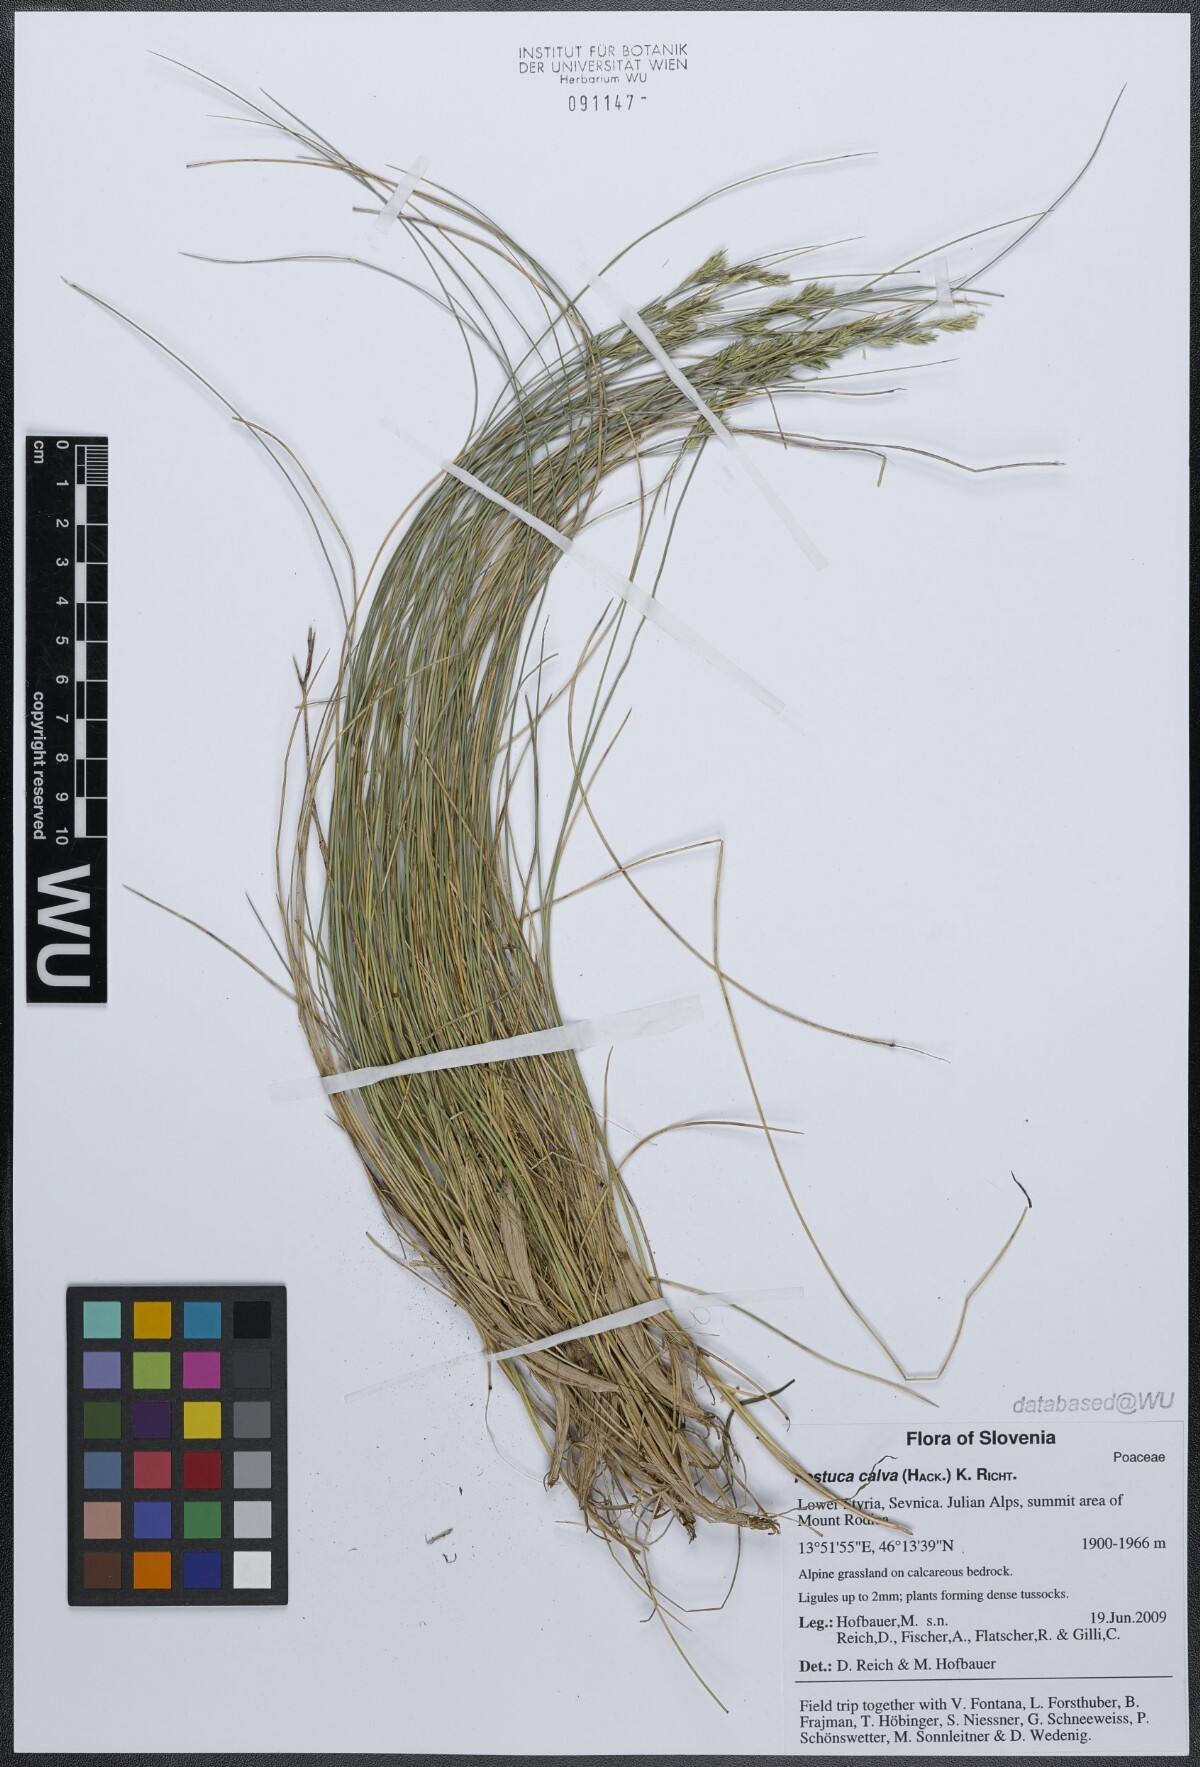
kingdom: Plantae
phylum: Tracheophyta
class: Liliopsida
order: Poales
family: Poaceae
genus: Festuca
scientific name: Festuca calva
